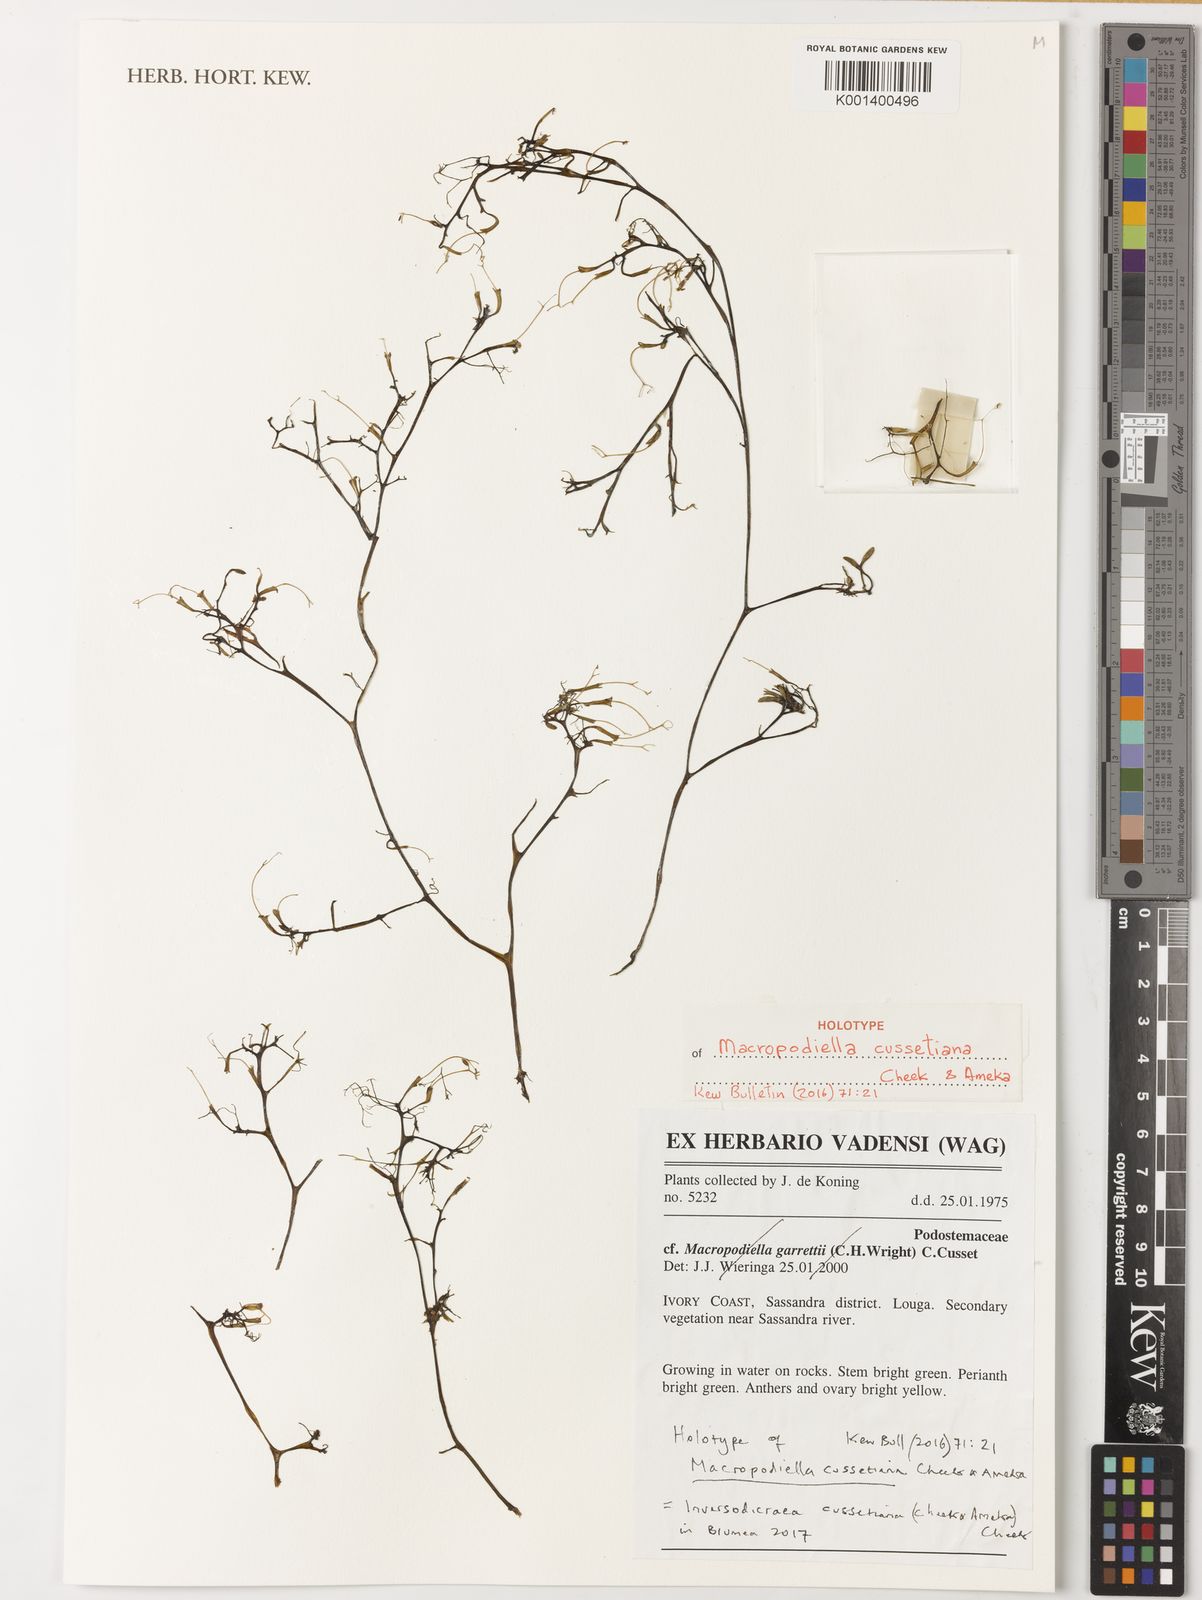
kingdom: Plantae
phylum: Tracheophyta
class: Magnoliopsida
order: Malpighiales
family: Podostemaceae
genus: Inversodicraea
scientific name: Inversodicraea cussetiana
